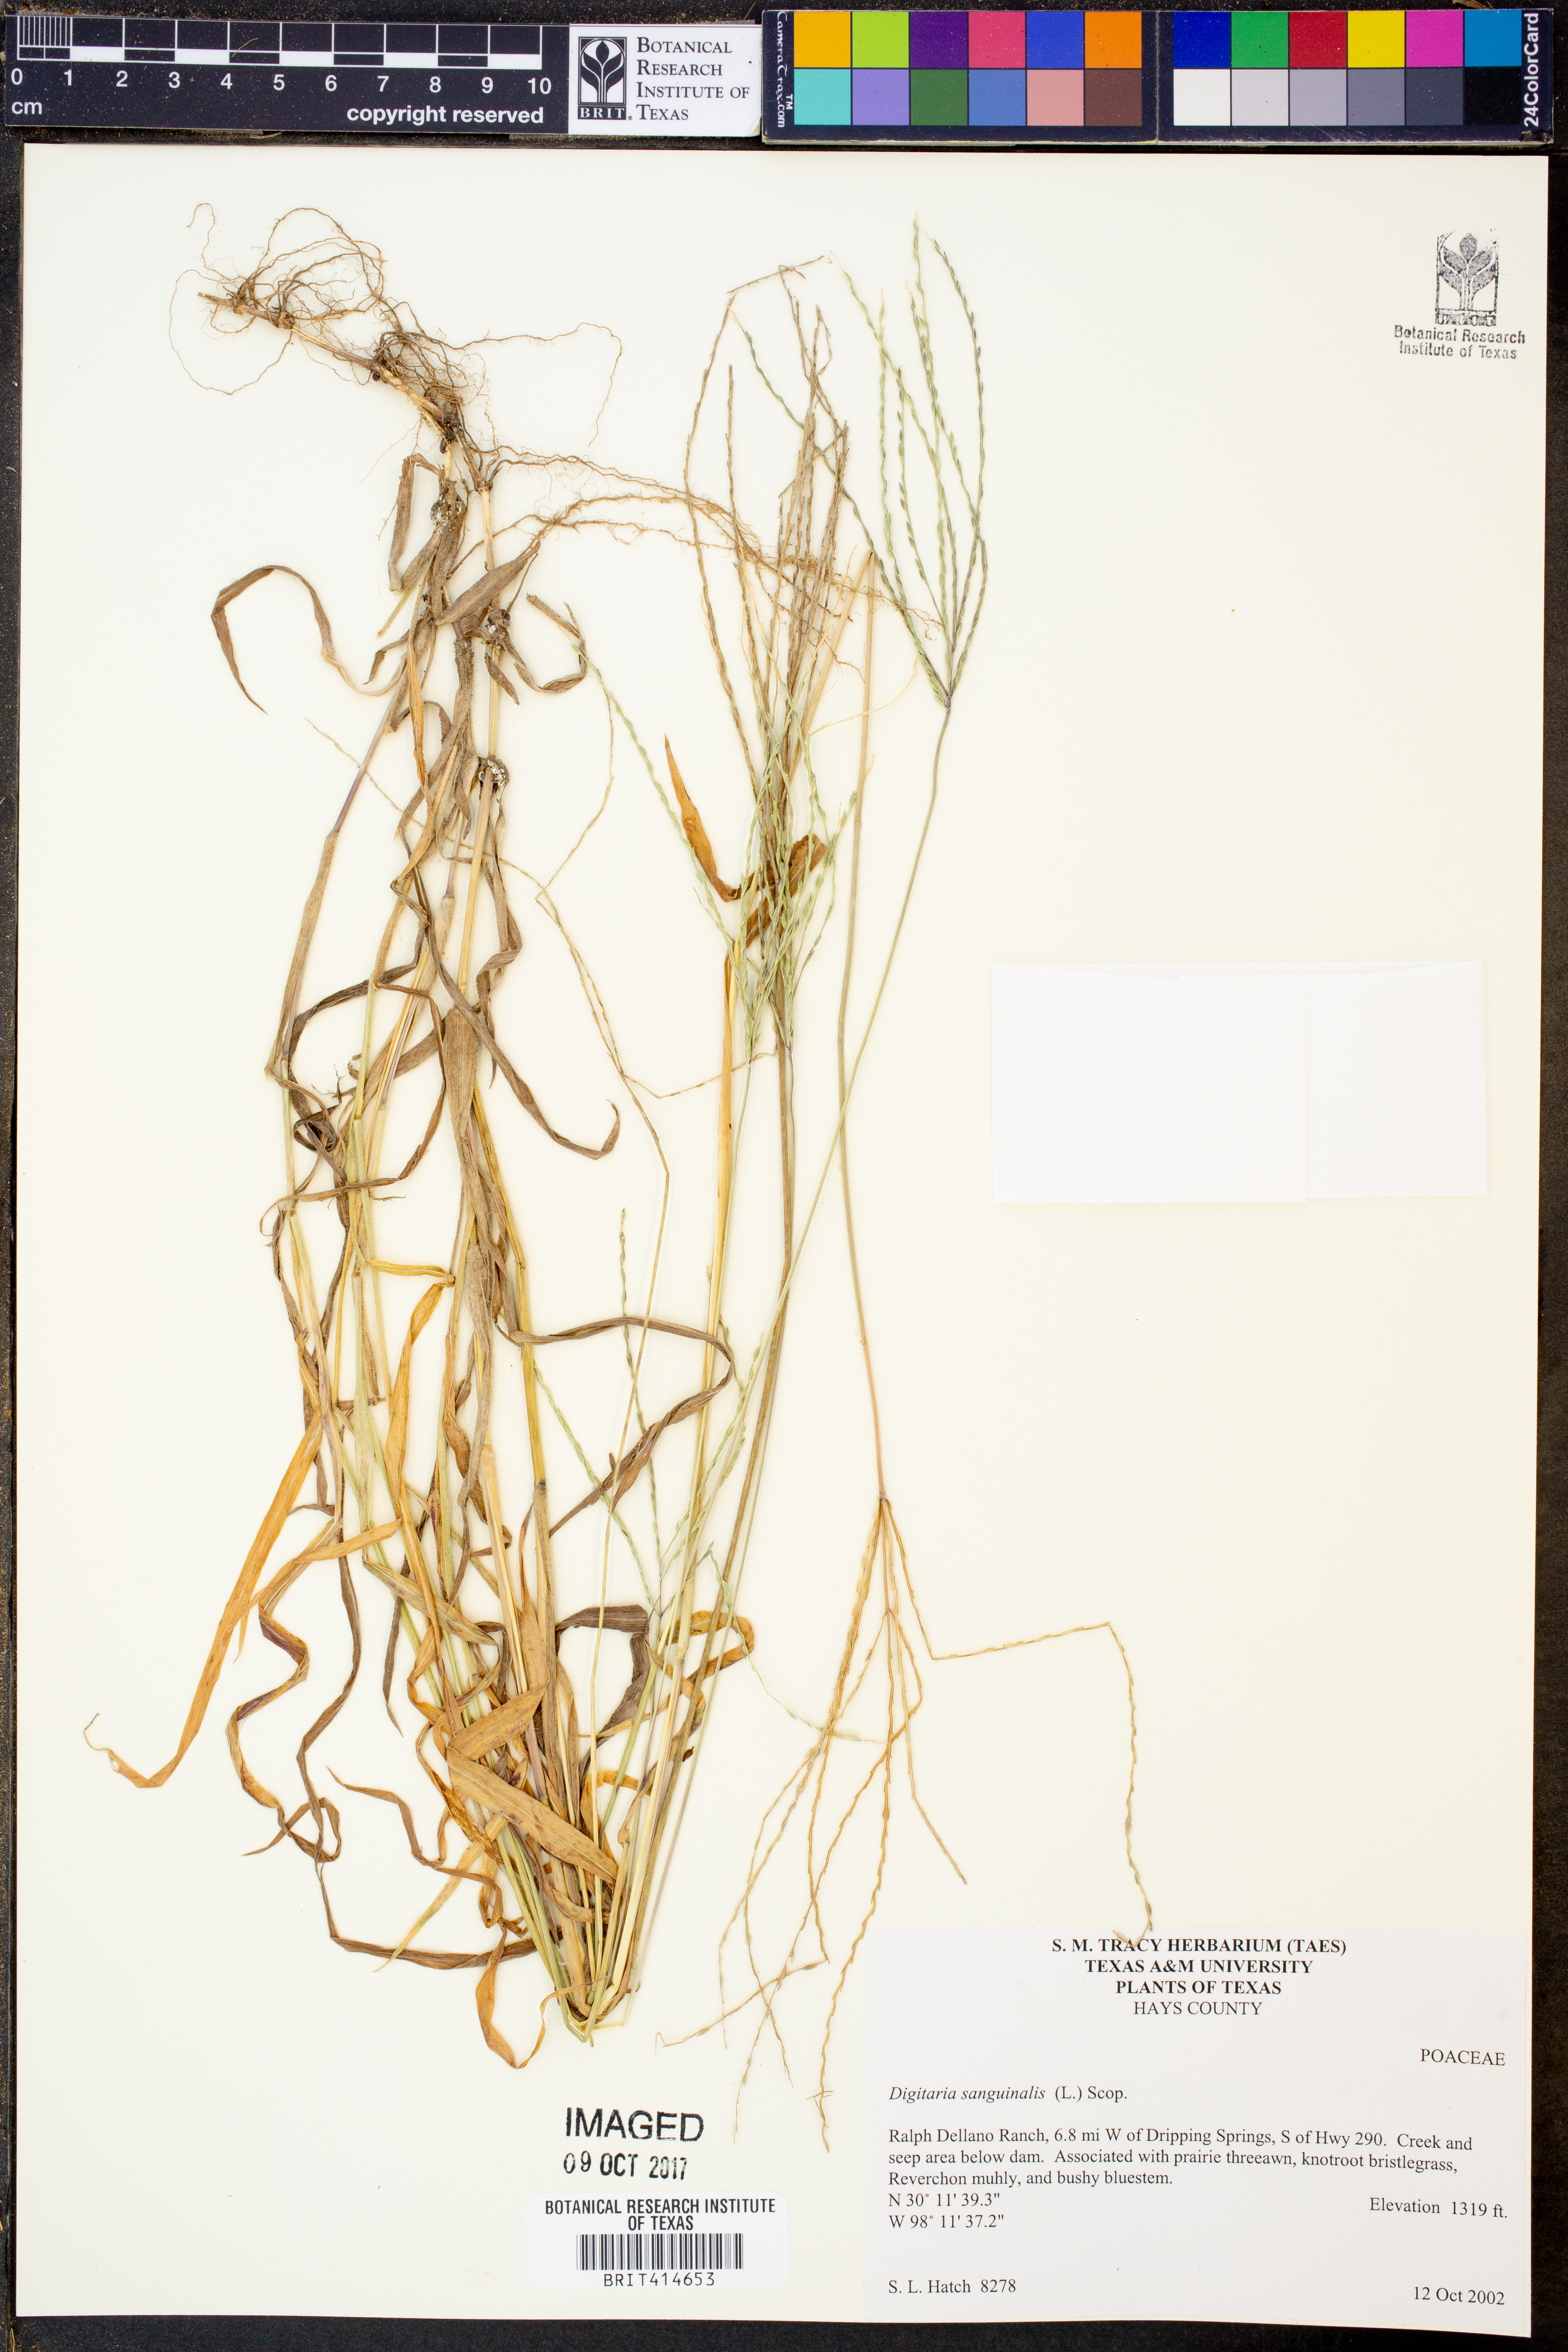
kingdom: Plantae
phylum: Tracheophyta
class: Liliopsida
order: Poales
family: Poaceae
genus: Digitaria
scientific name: Digitaria sanguinalis
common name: Hairy crabgrass
